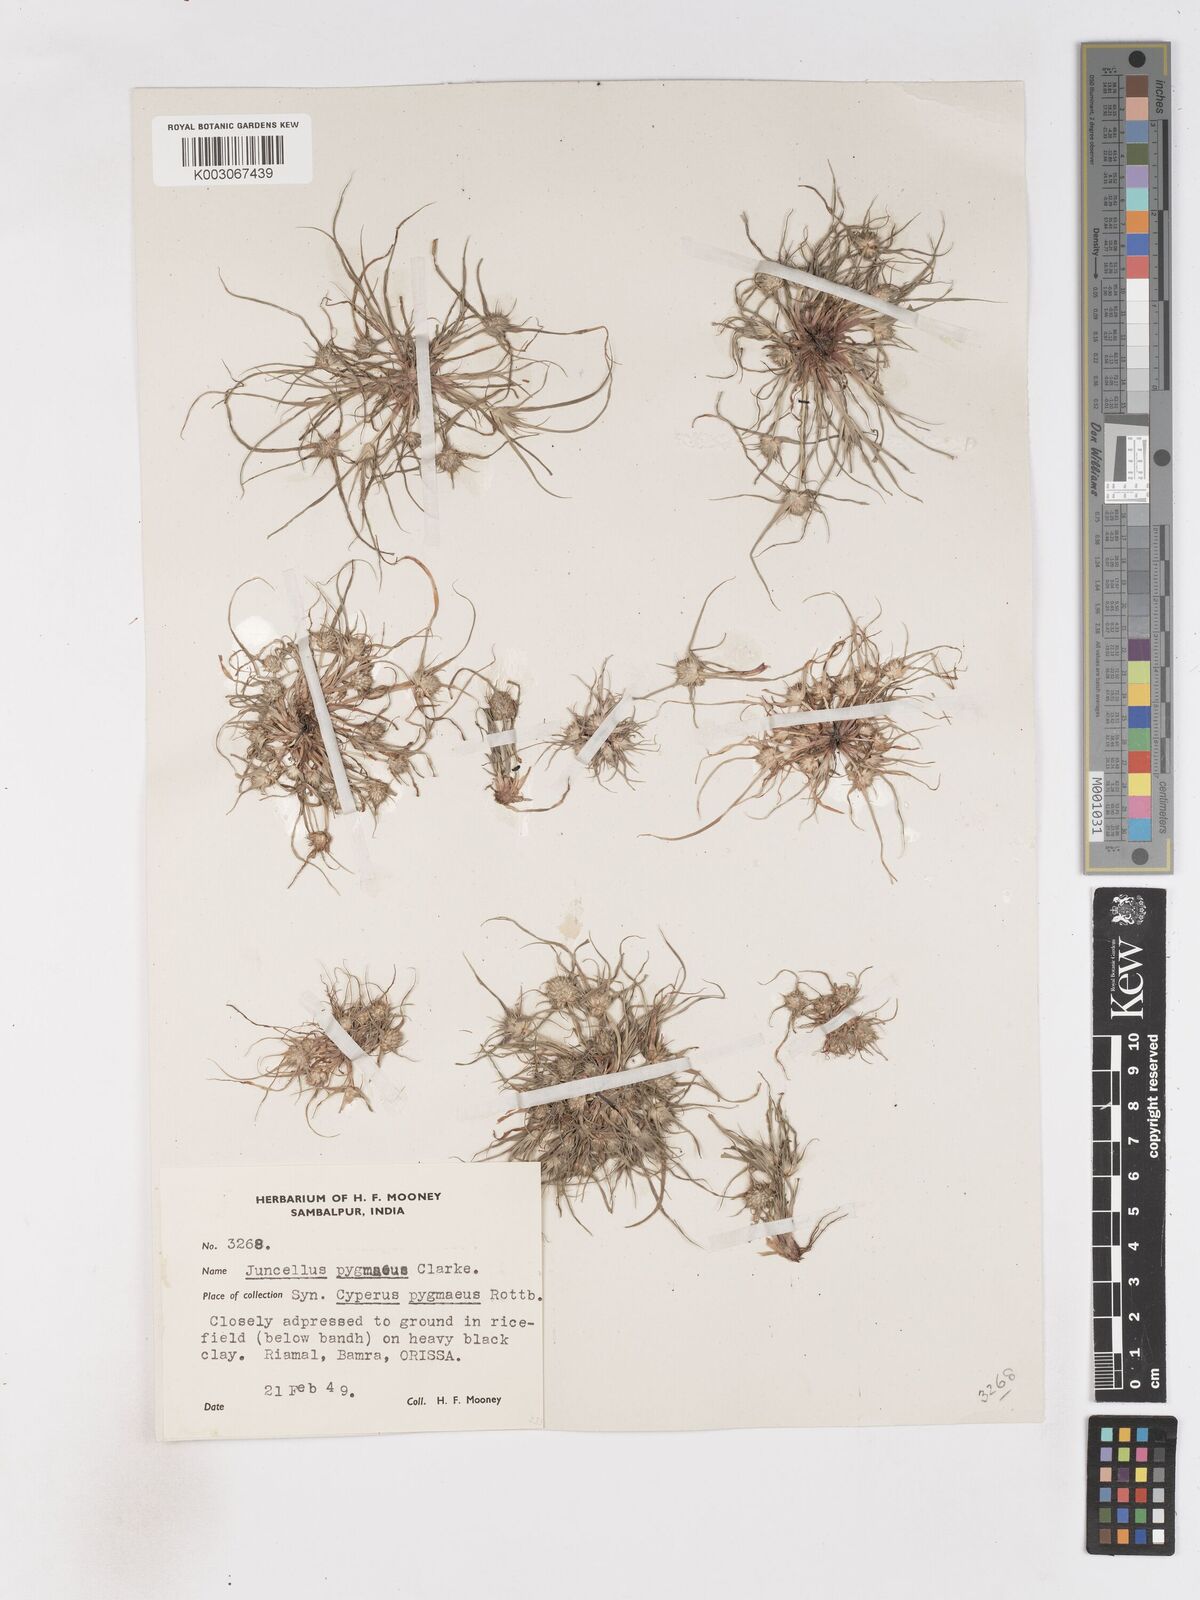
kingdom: Plantae
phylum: Tracheophyta
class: Liliopsida
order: Poales
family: Cyperaceae
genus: Cyperus
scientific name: Cyperus michelianus
